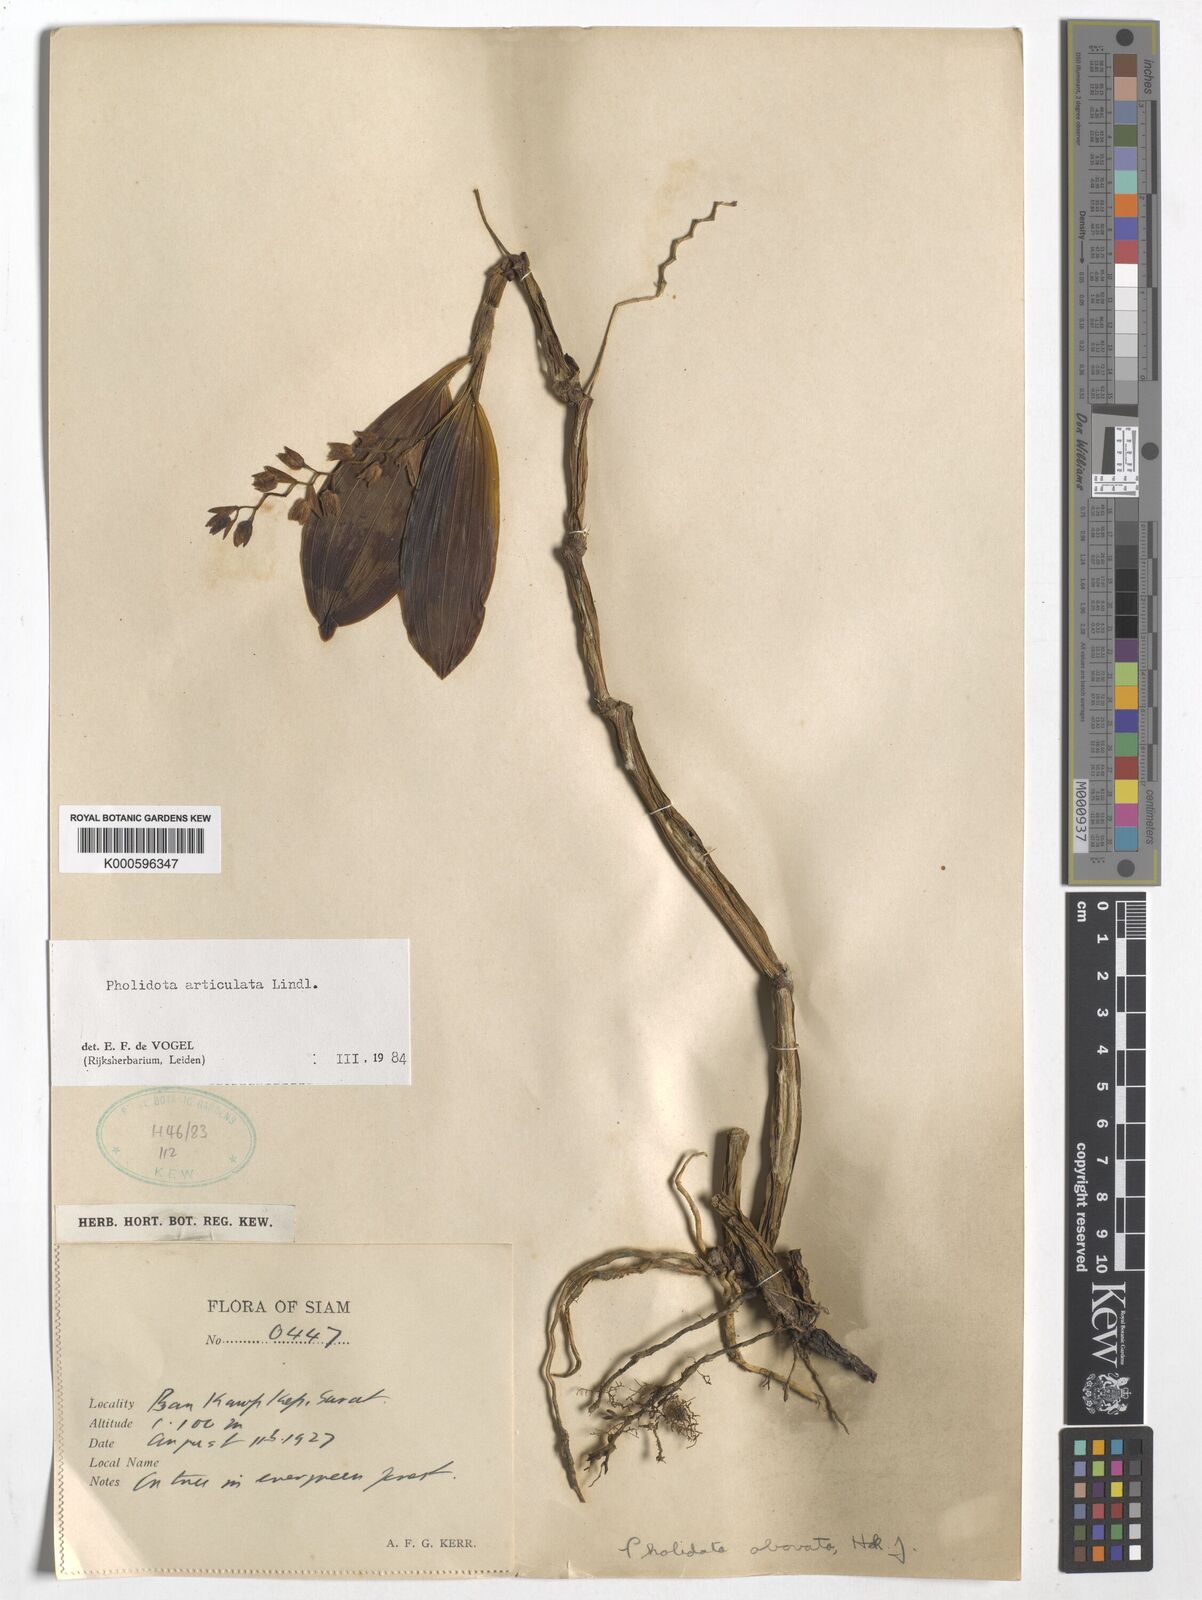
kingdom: Plantae
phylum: Tracheophyta
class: Liliopsida
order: Asparagales
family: Orchidaceae
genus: Coelogyne
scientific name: Coelogyne articulata
